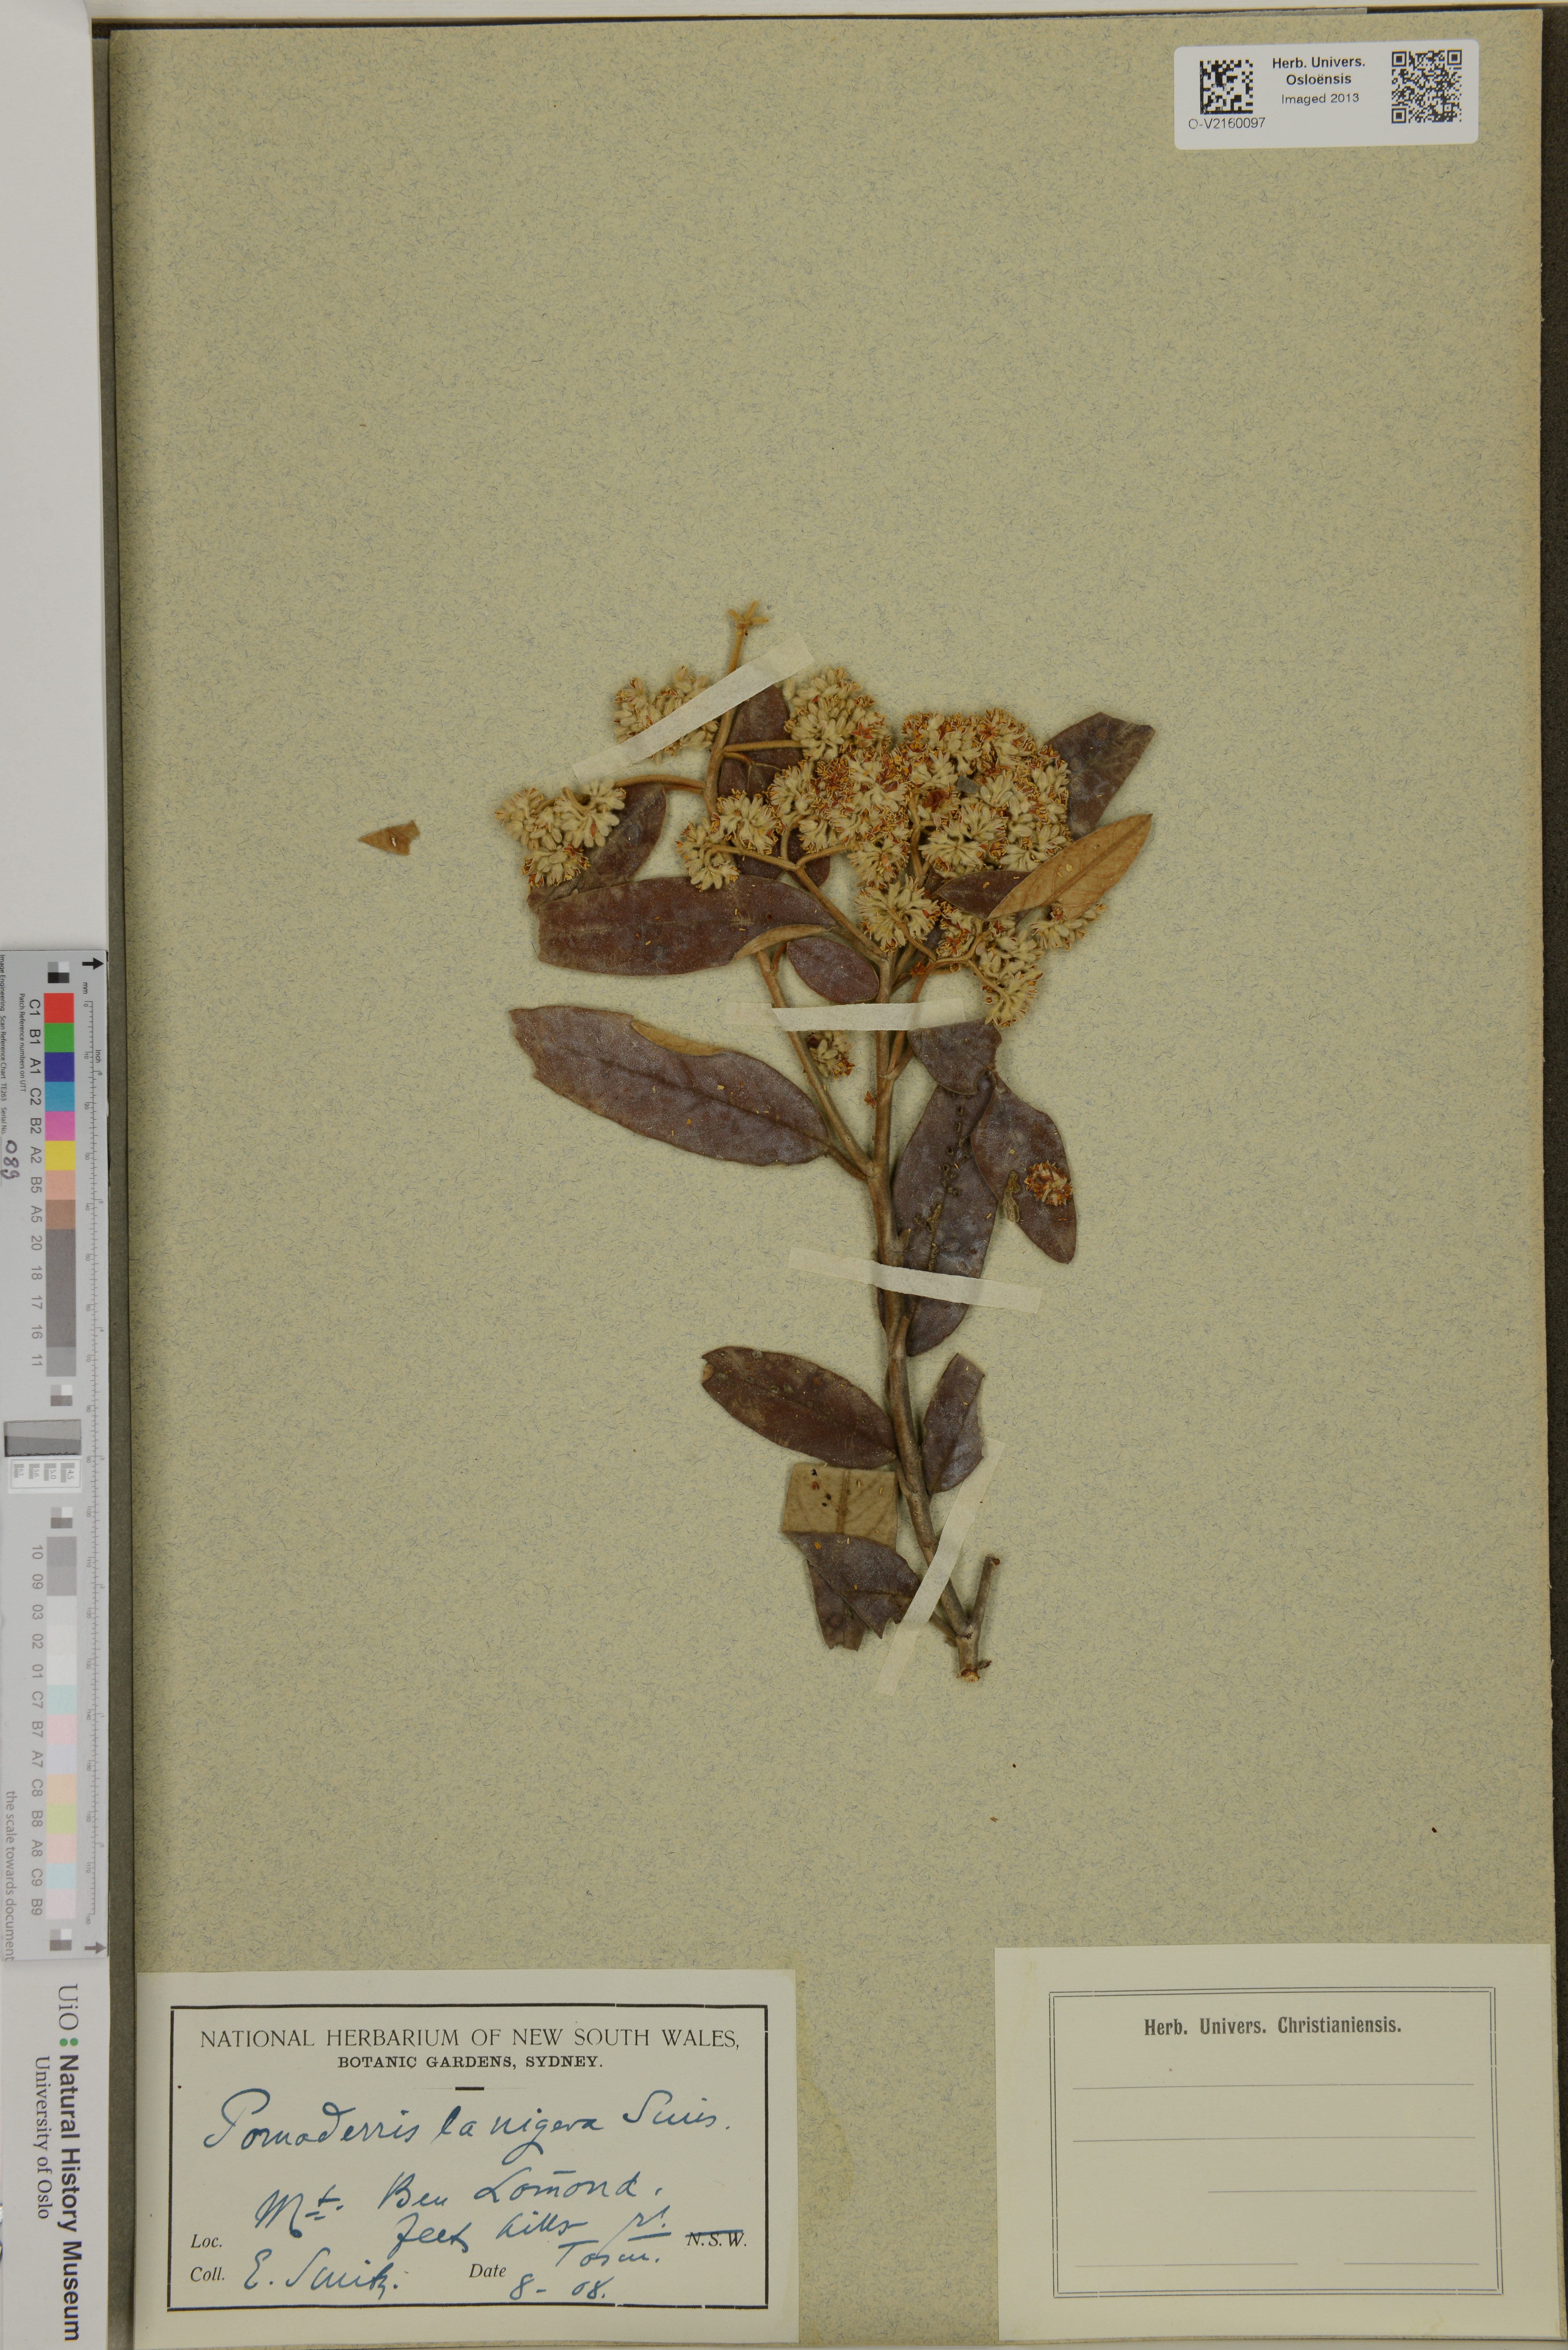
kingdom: Plantae
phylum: Tracheophyta
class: Magnoliopsida
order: Rosales
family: Rhamnaceae
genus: Pomaderris
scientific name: Pomaderris lanigera
